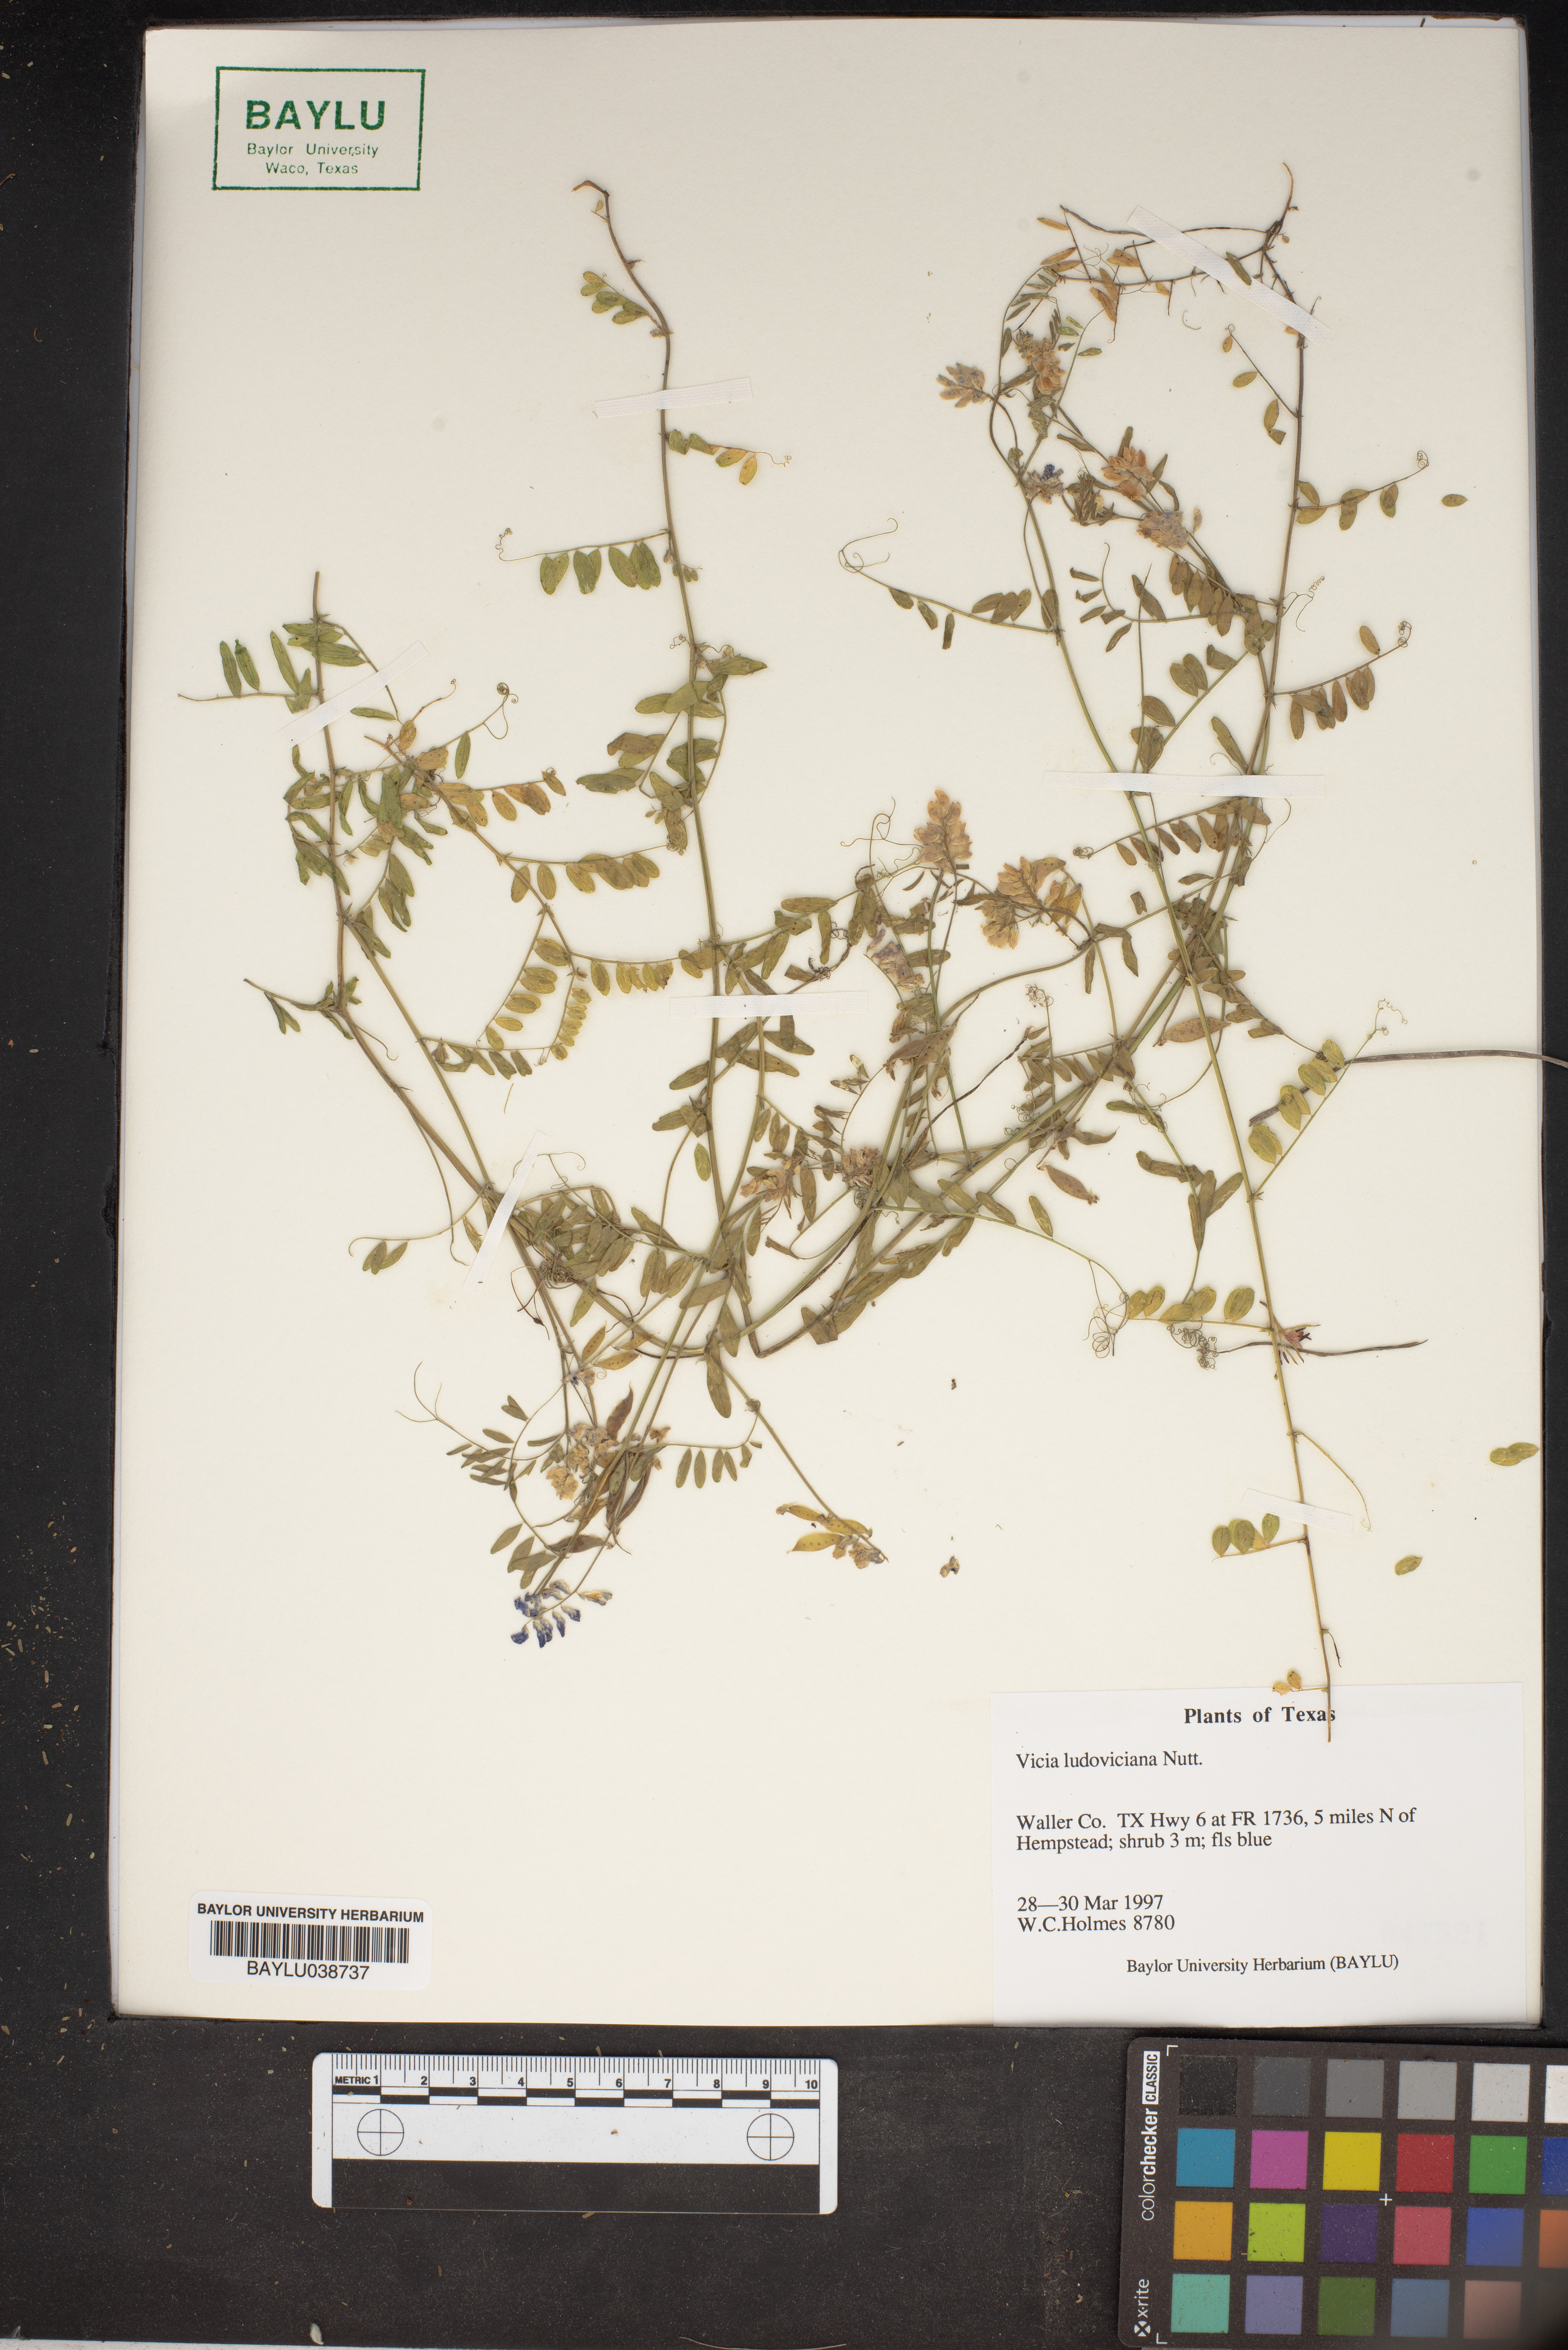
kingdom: Plantae
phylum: Tracheophyta
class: Magnoliopsida
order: Fabales
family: Fabaceae
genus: Vicia
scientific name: Vicia ludoviciana
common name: Louisiana vetch
